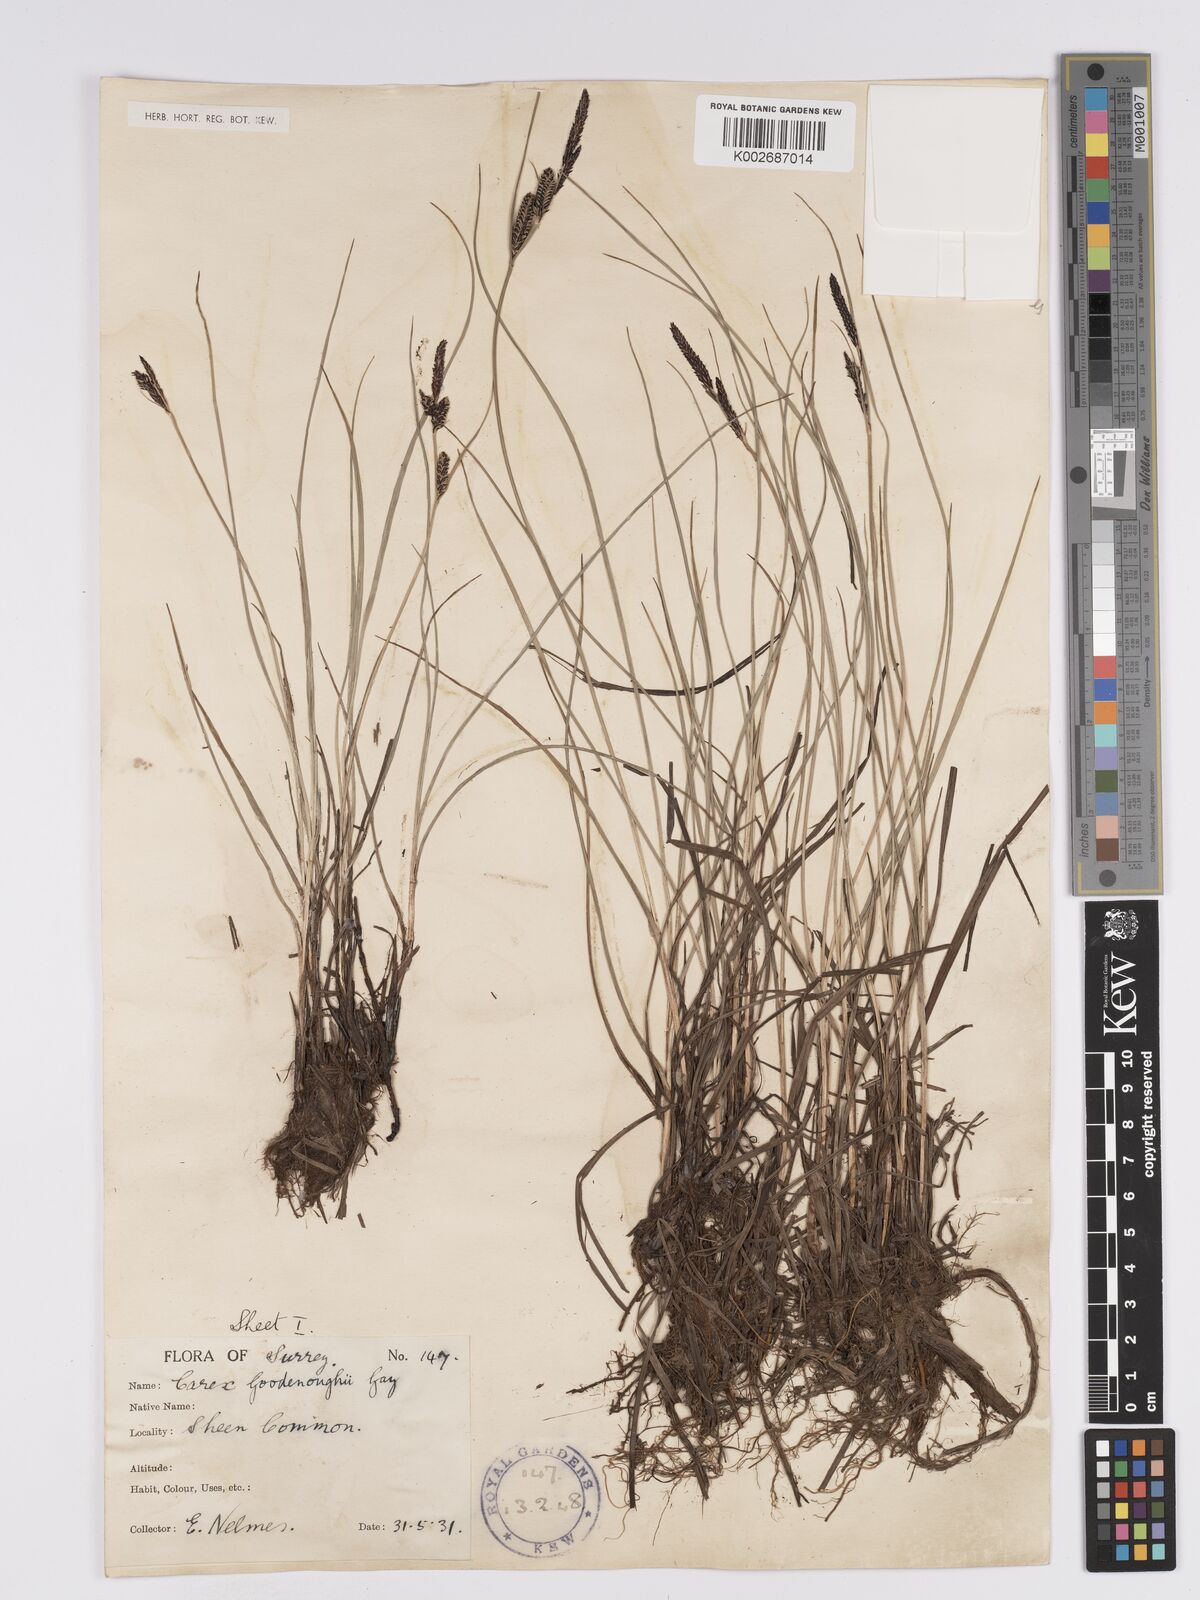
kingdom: Plantae
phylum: Tracheophyta
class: Liliopsida
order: Poales
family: Cyperaceae
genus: Carex
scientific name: Carex nigra
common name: Common sedge
